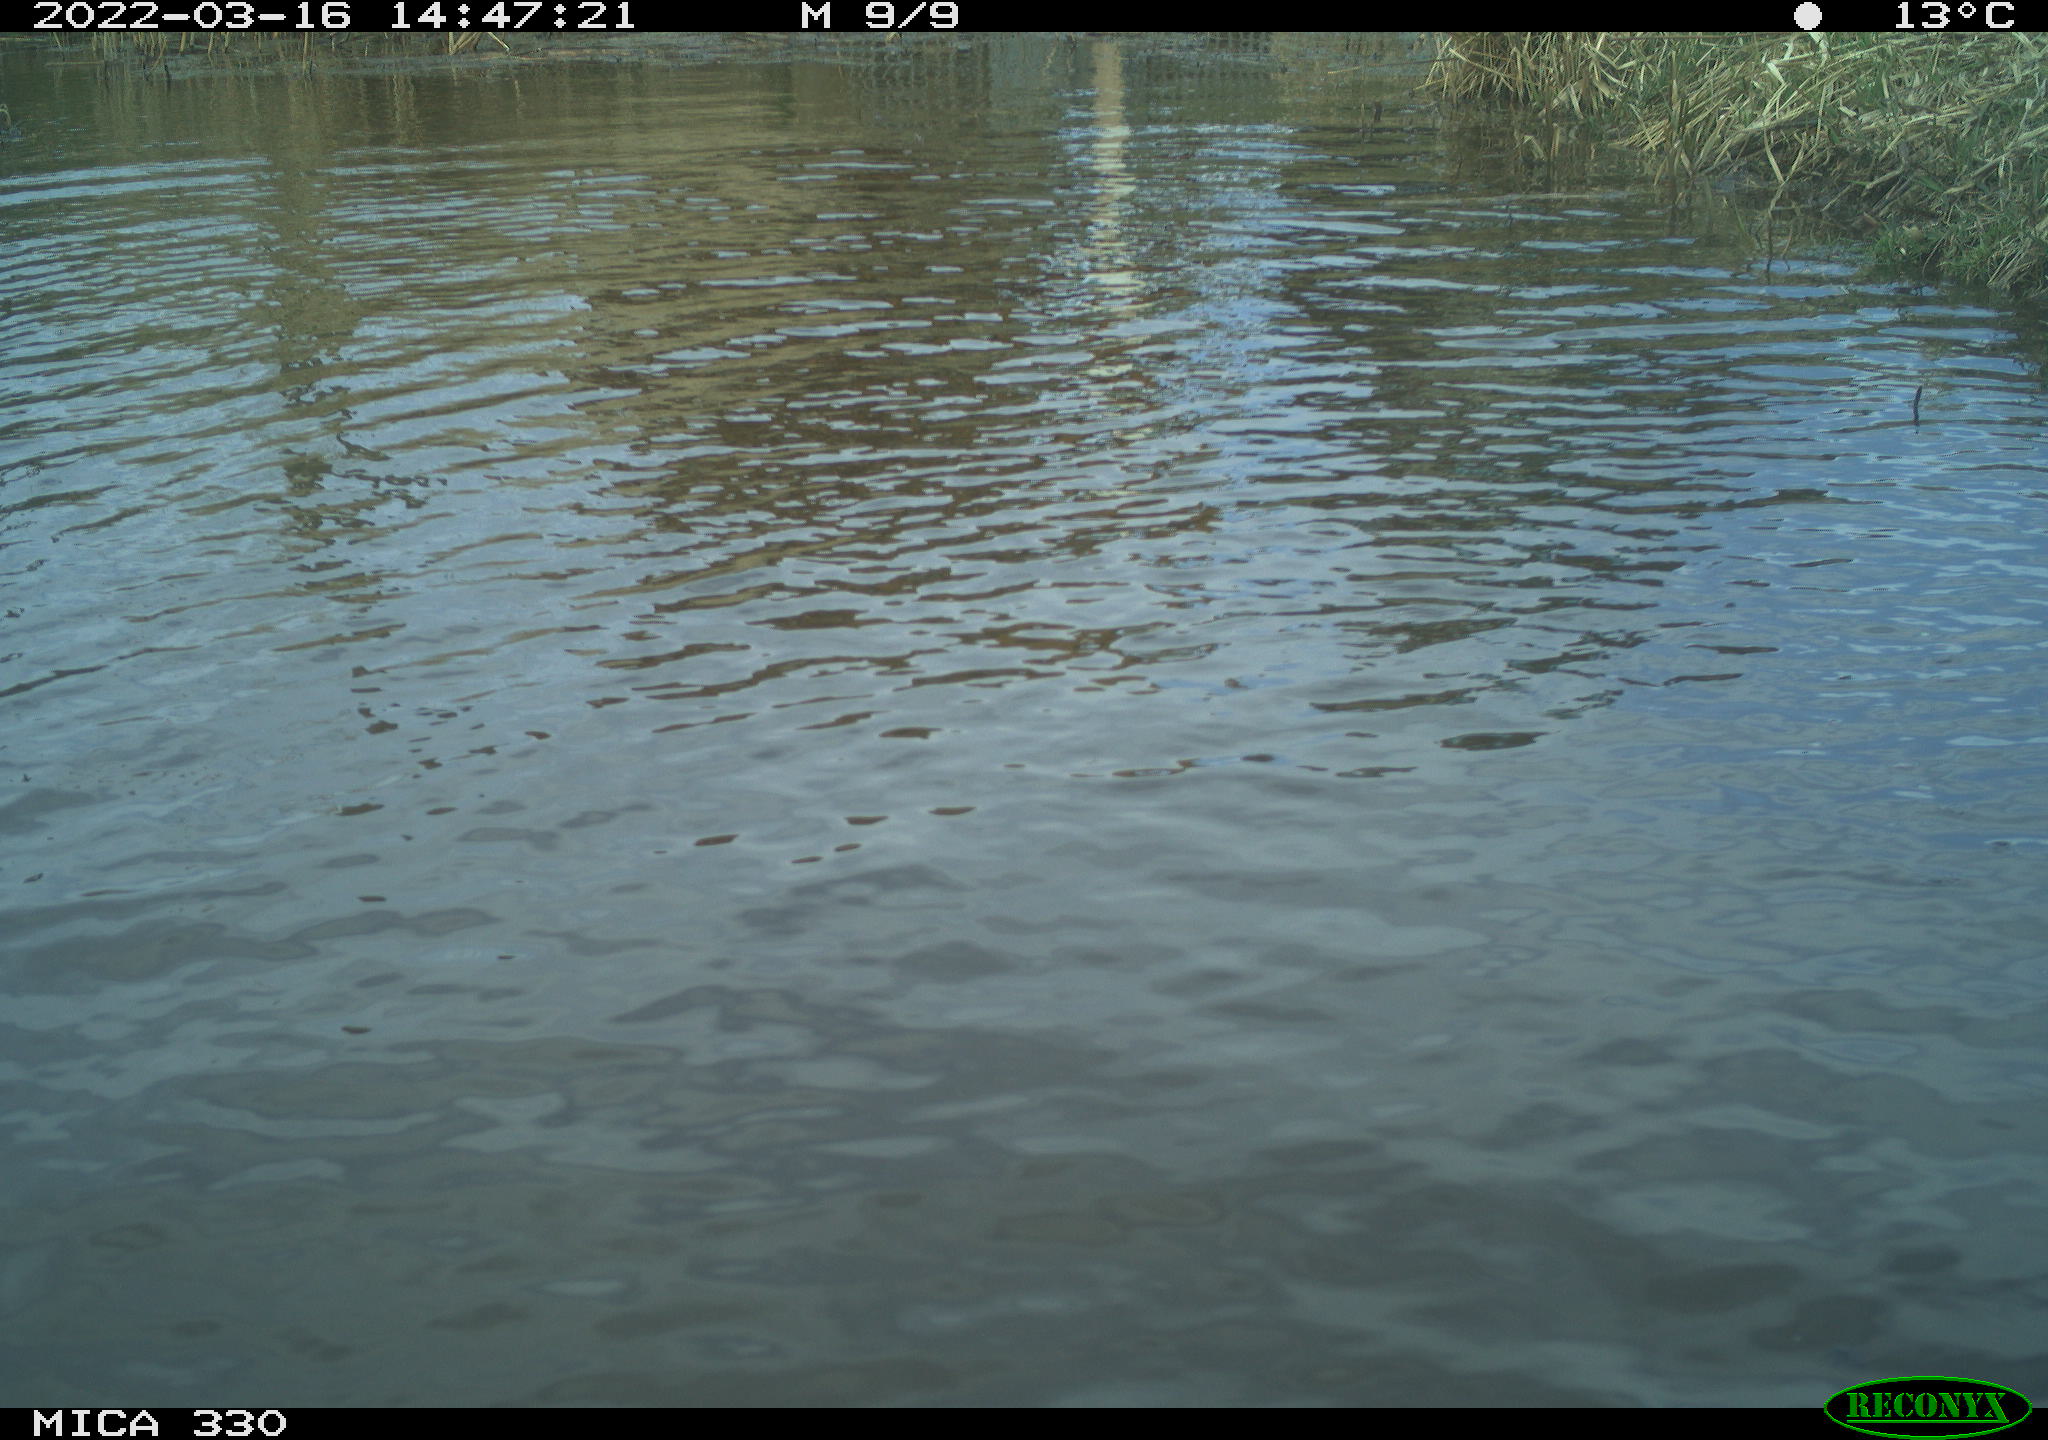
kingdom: Animalia
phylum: Chordata
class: Aves
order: Anseriformes
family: Anatidae
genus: Anas
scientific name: Anas platyrhynchos
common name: Mallard
